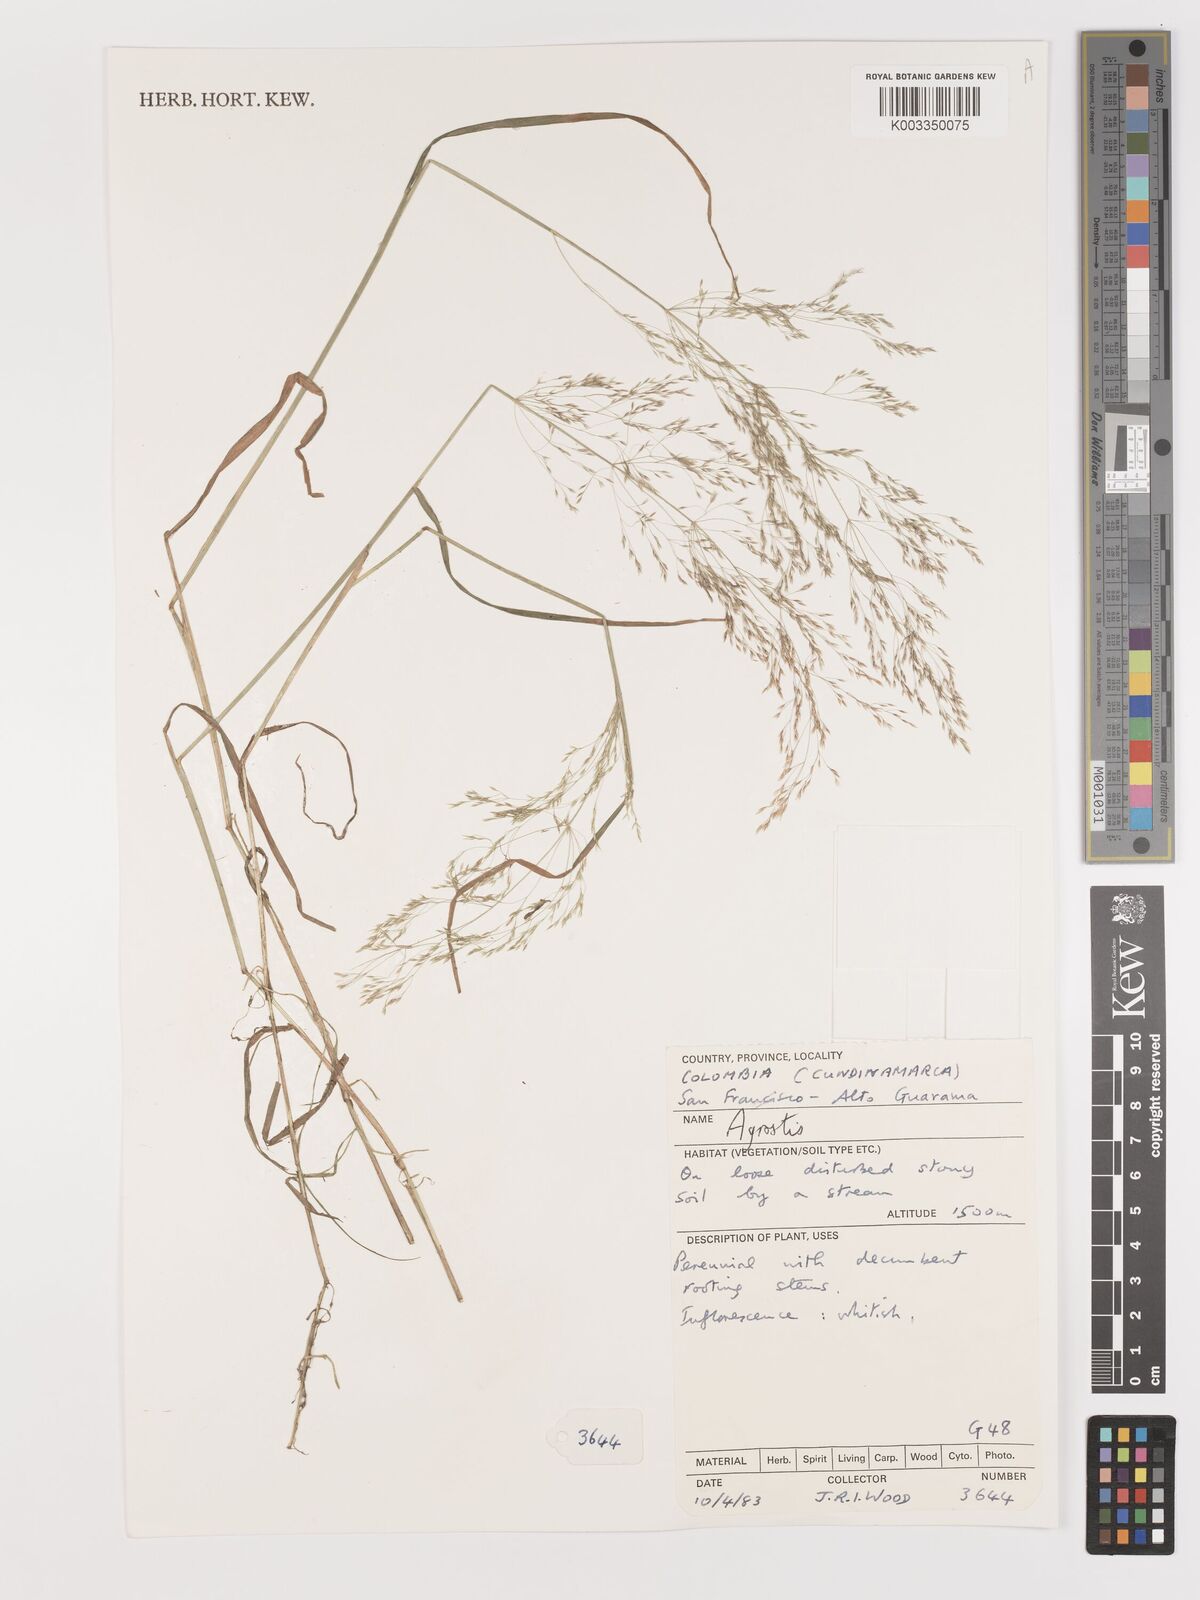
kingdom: Plantae
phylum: Tracheophyta
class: Liliopsida
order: Poales
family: Poaceae
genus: Agrostis
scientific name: Agrostis
